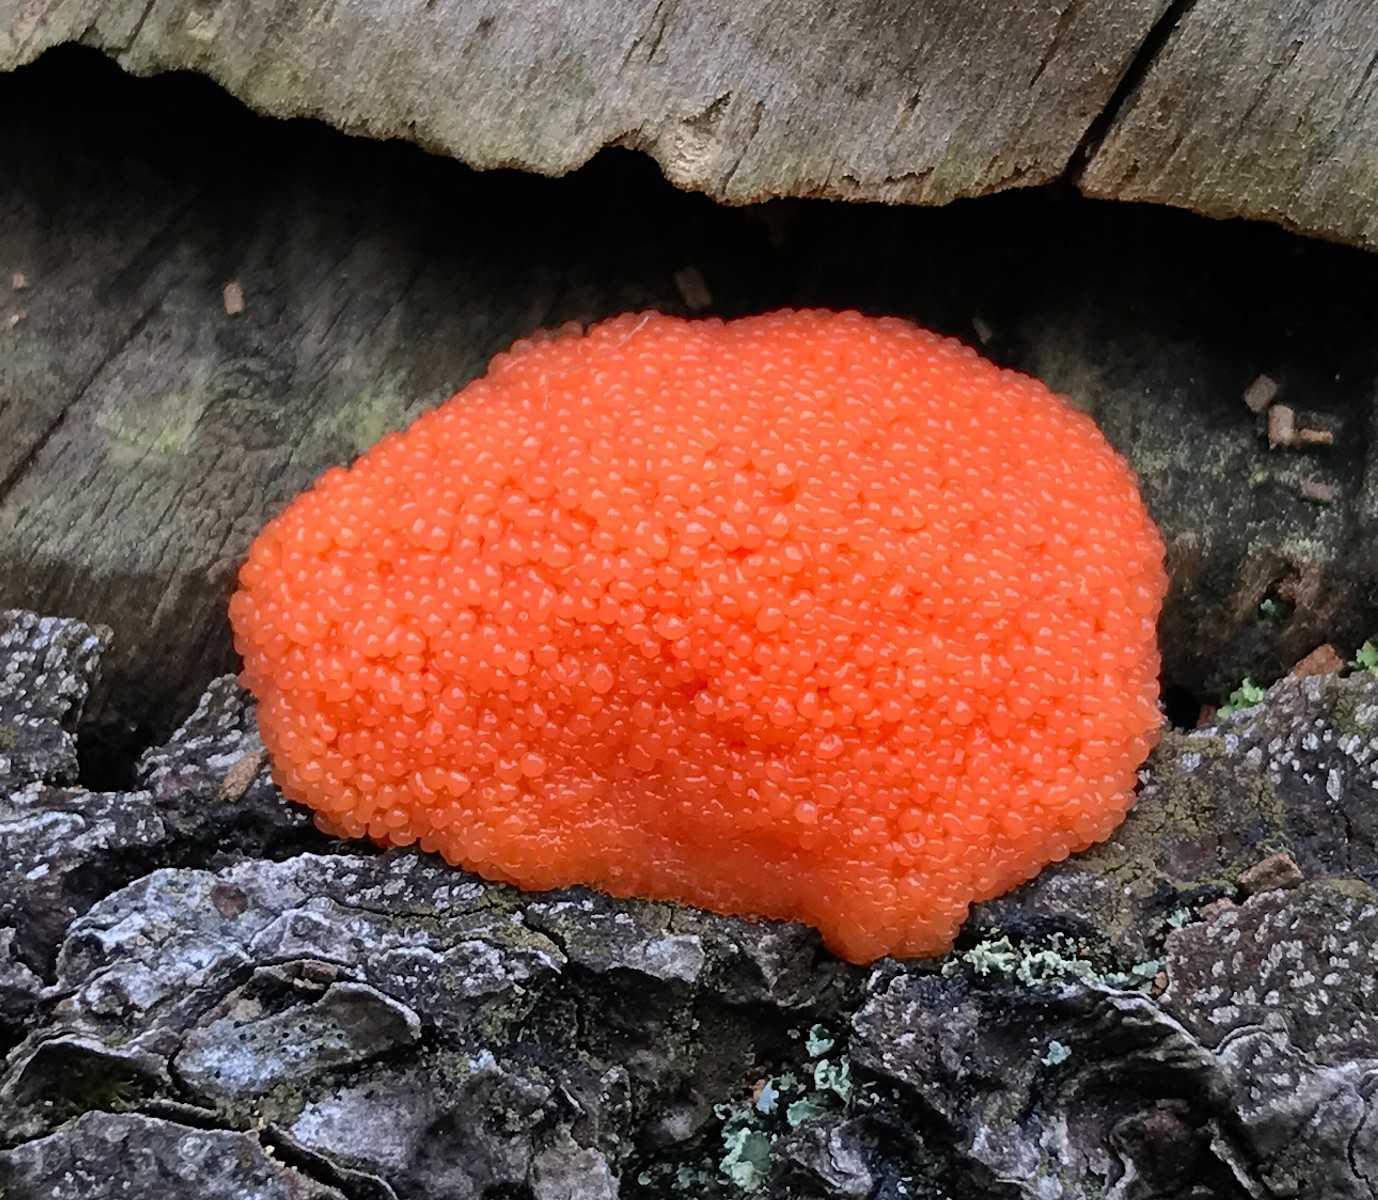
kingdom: Protozoa
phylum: Mycetozoa
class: Myxomycetes
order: Cribrariales
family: Tubiferaceae
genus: Tubifera
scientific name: Tubifera ferruginosa
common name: kanel-støvrør
